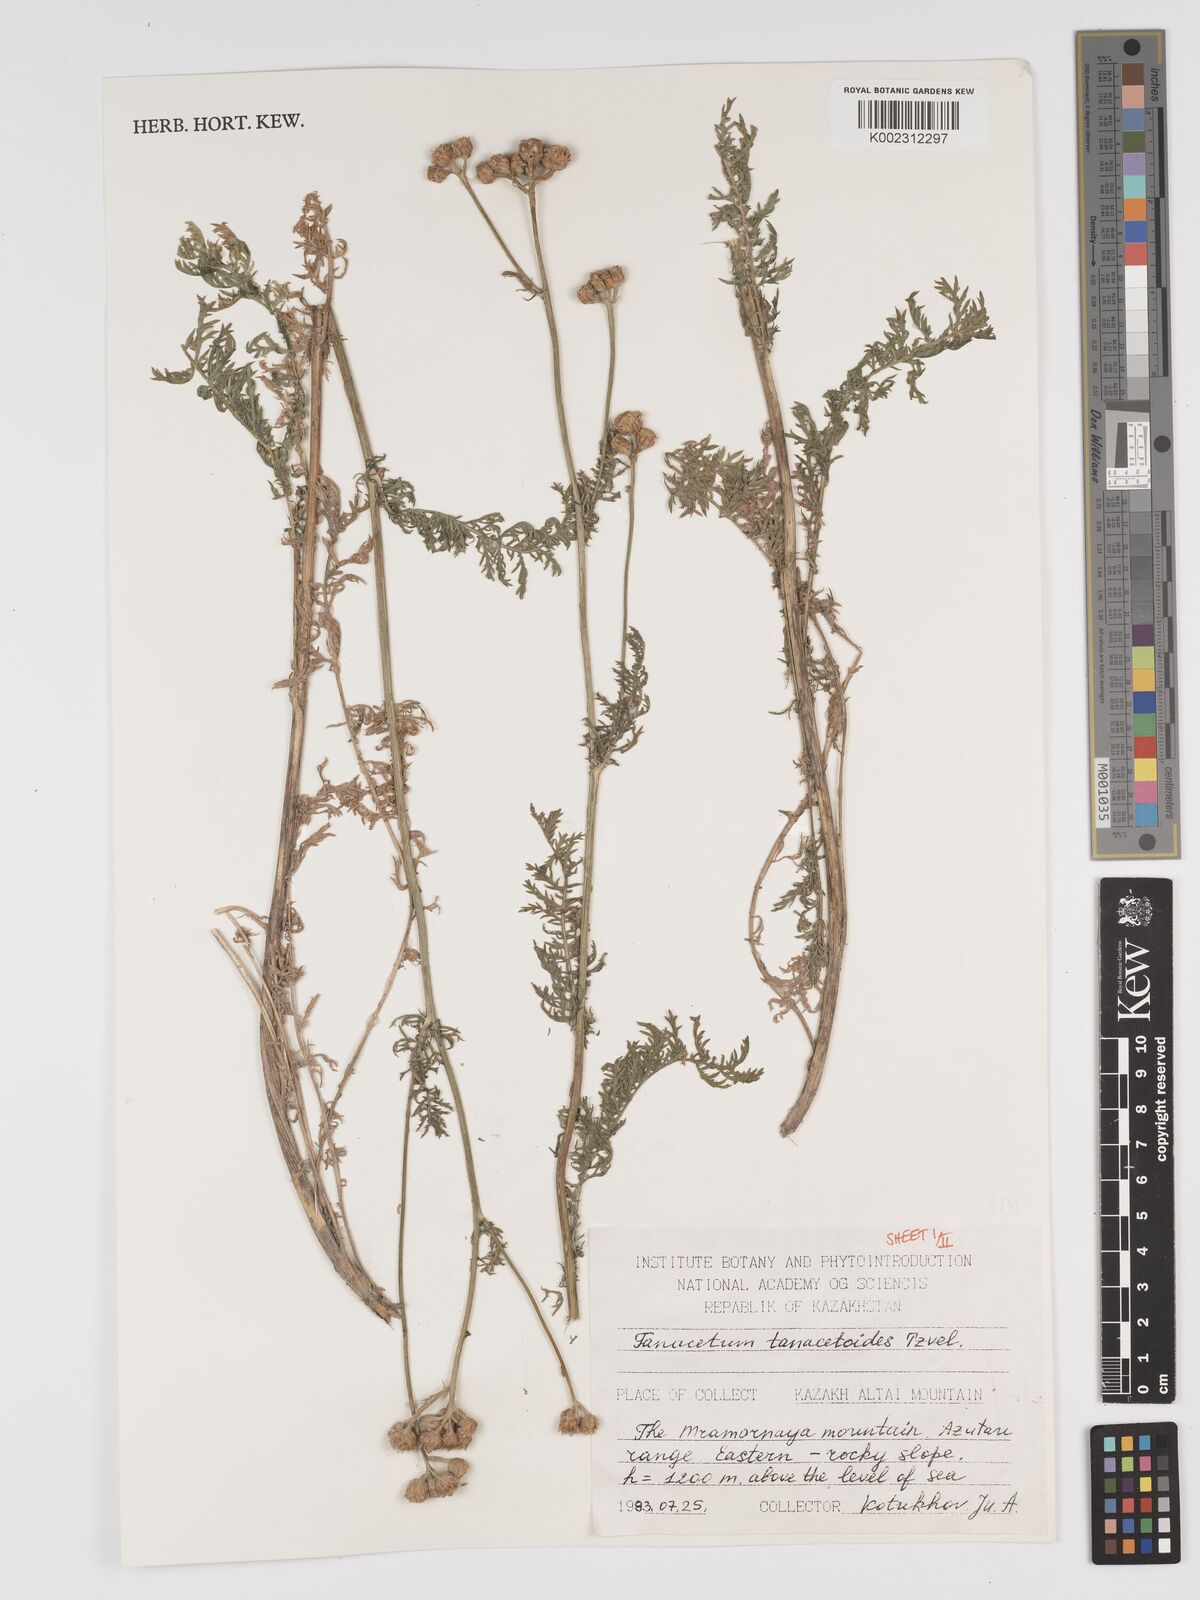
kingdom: Plantae
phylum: Tracheophyta
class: Magnoliopsida
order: Asterales
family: Asteraceae
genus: Tanacetum
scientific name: Tanacetum tanacetoides
